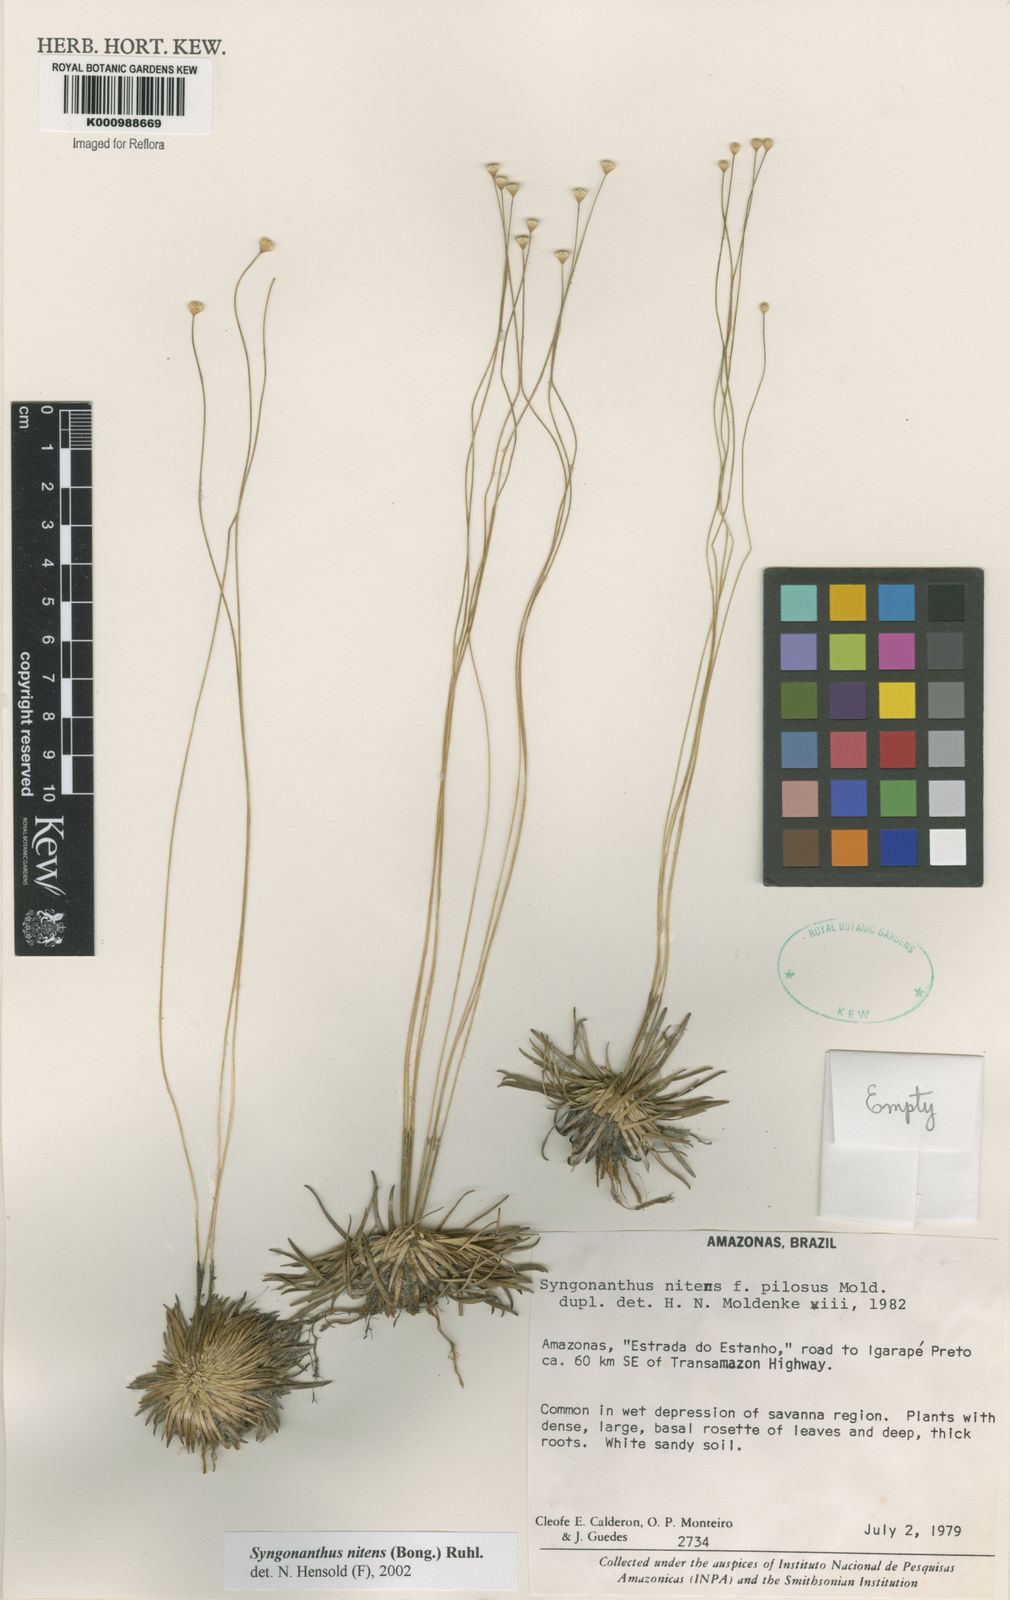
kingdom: Plantae
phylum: Tracheophyta
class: Liliopsida
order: Poales
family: Eriocaulaceae
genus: Syngonanthus
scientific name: Syngonanthus nitens
